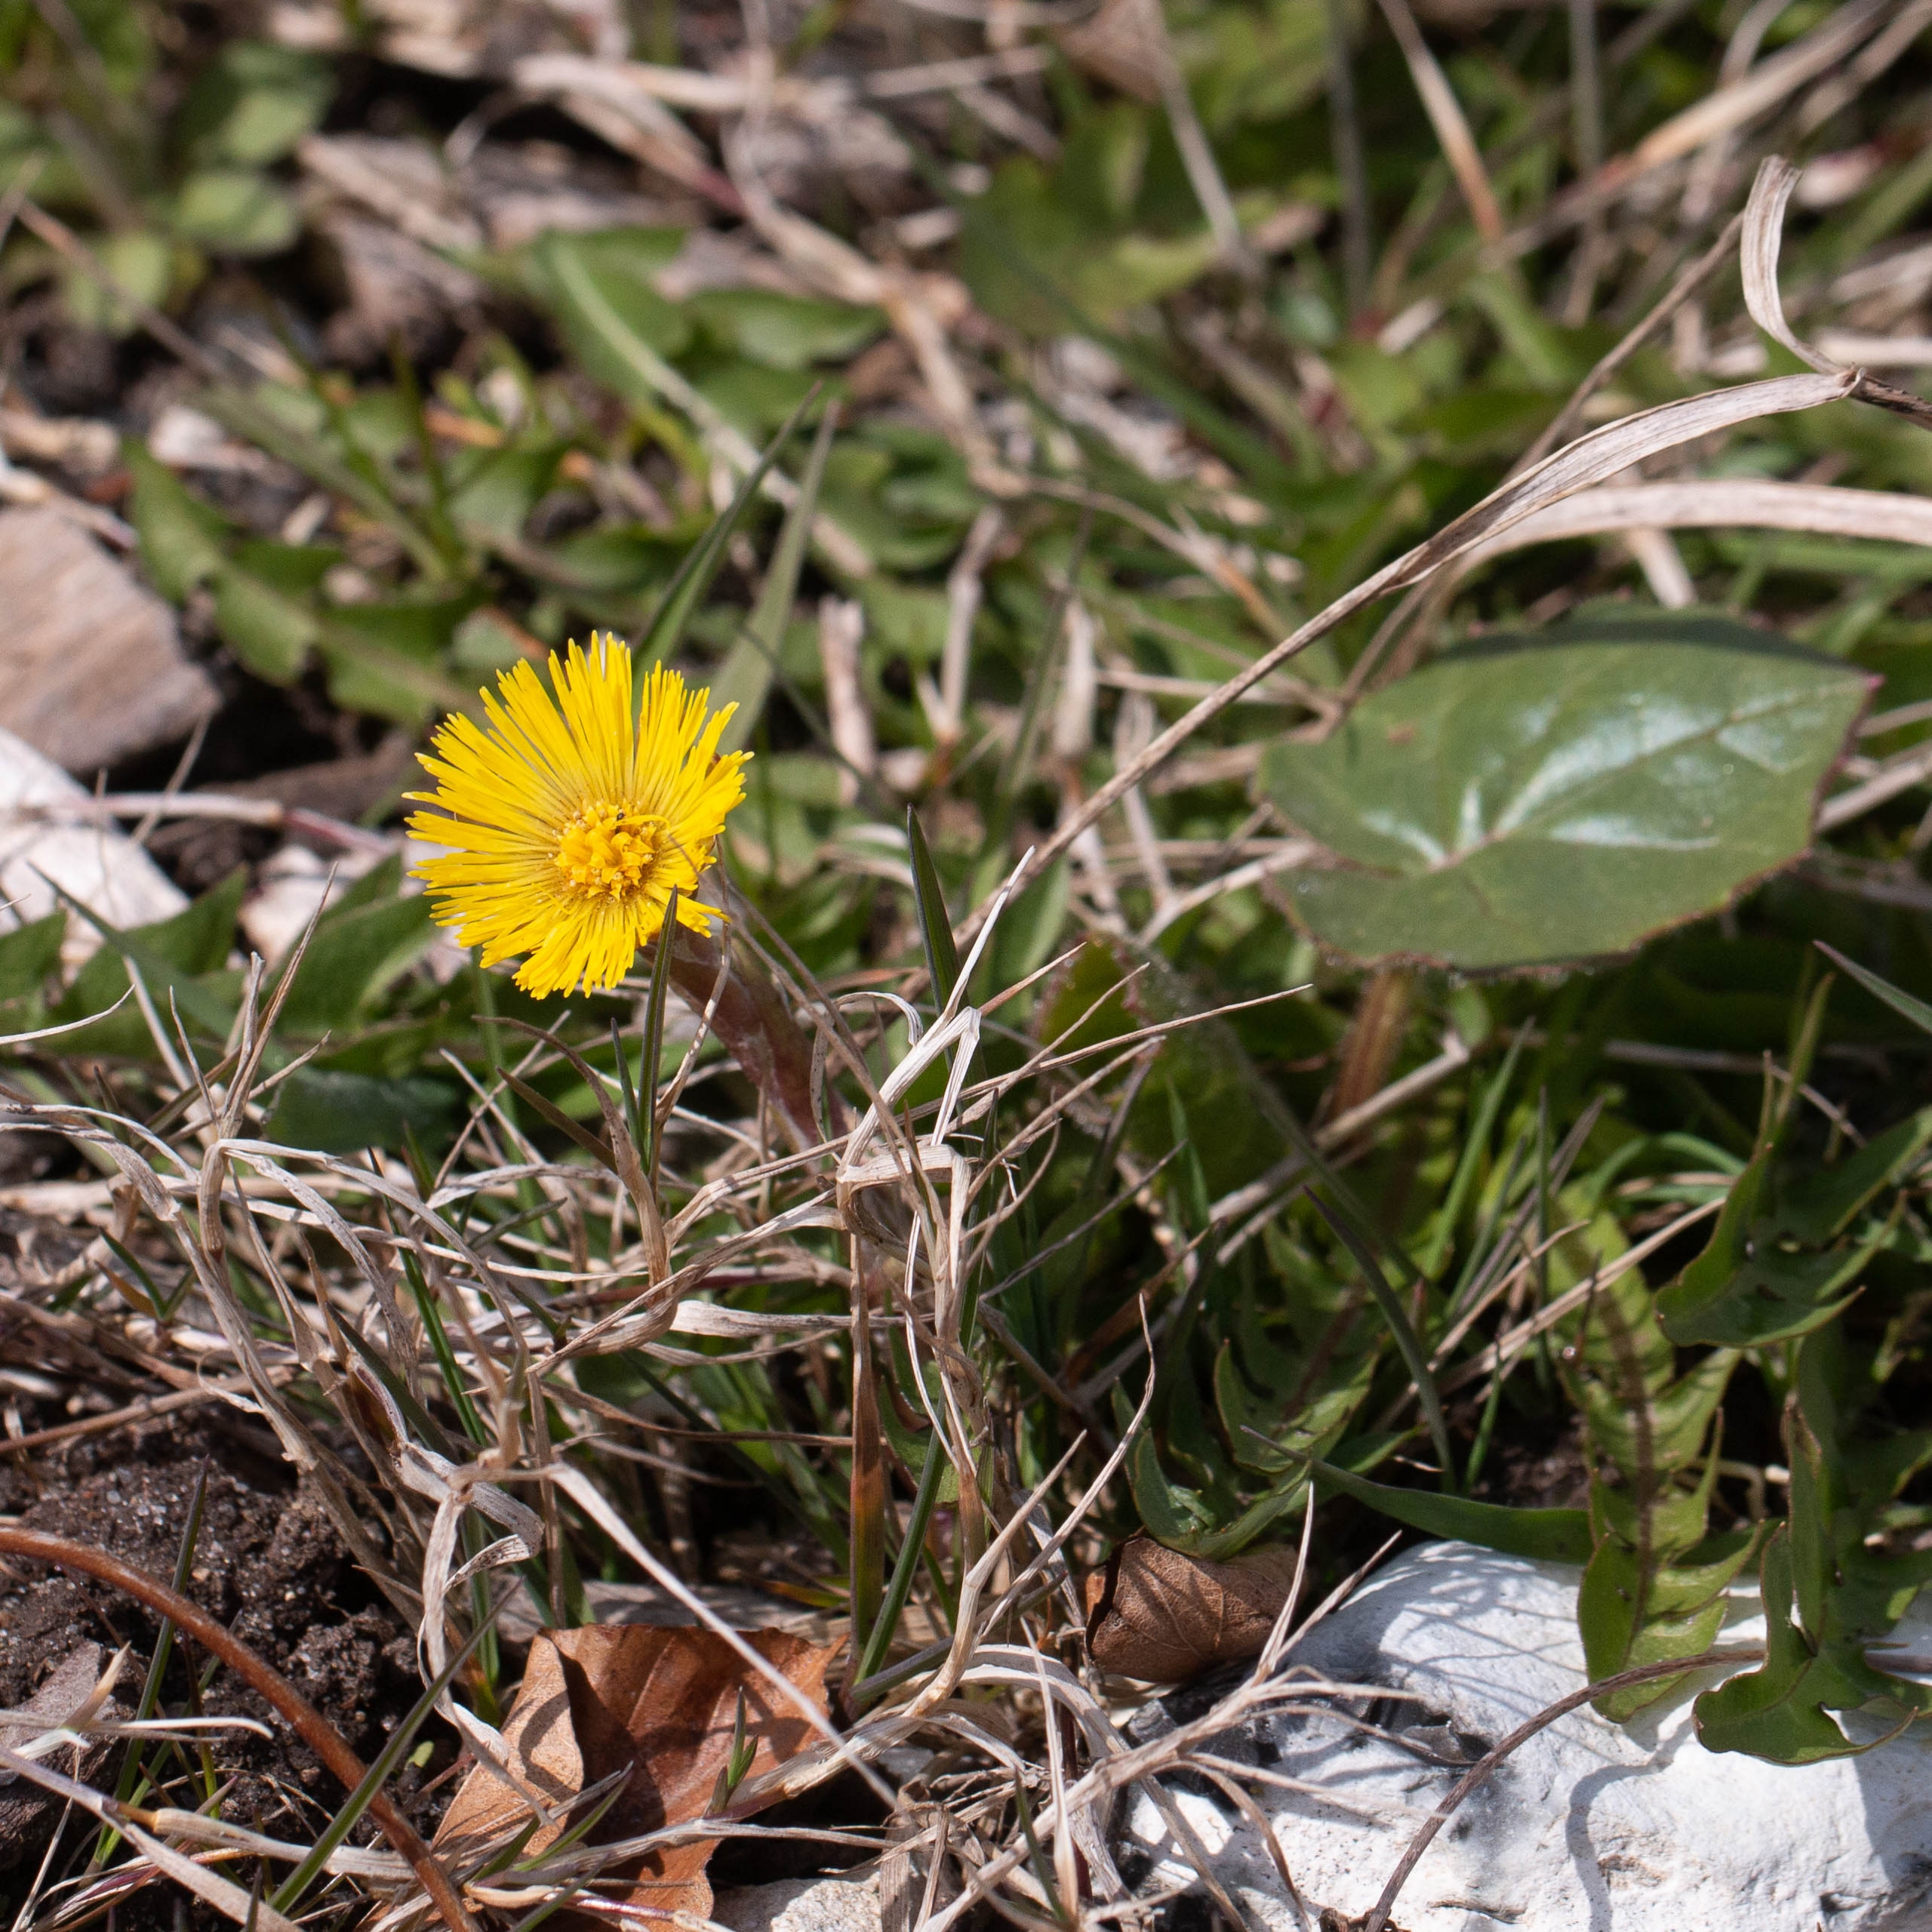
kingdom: Plantae
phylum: Tracheophyta
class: Magnoliopsida
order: Asterales
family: Asteraceae
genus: Tussilago
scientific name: Tussilago farfara
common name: Følfod
